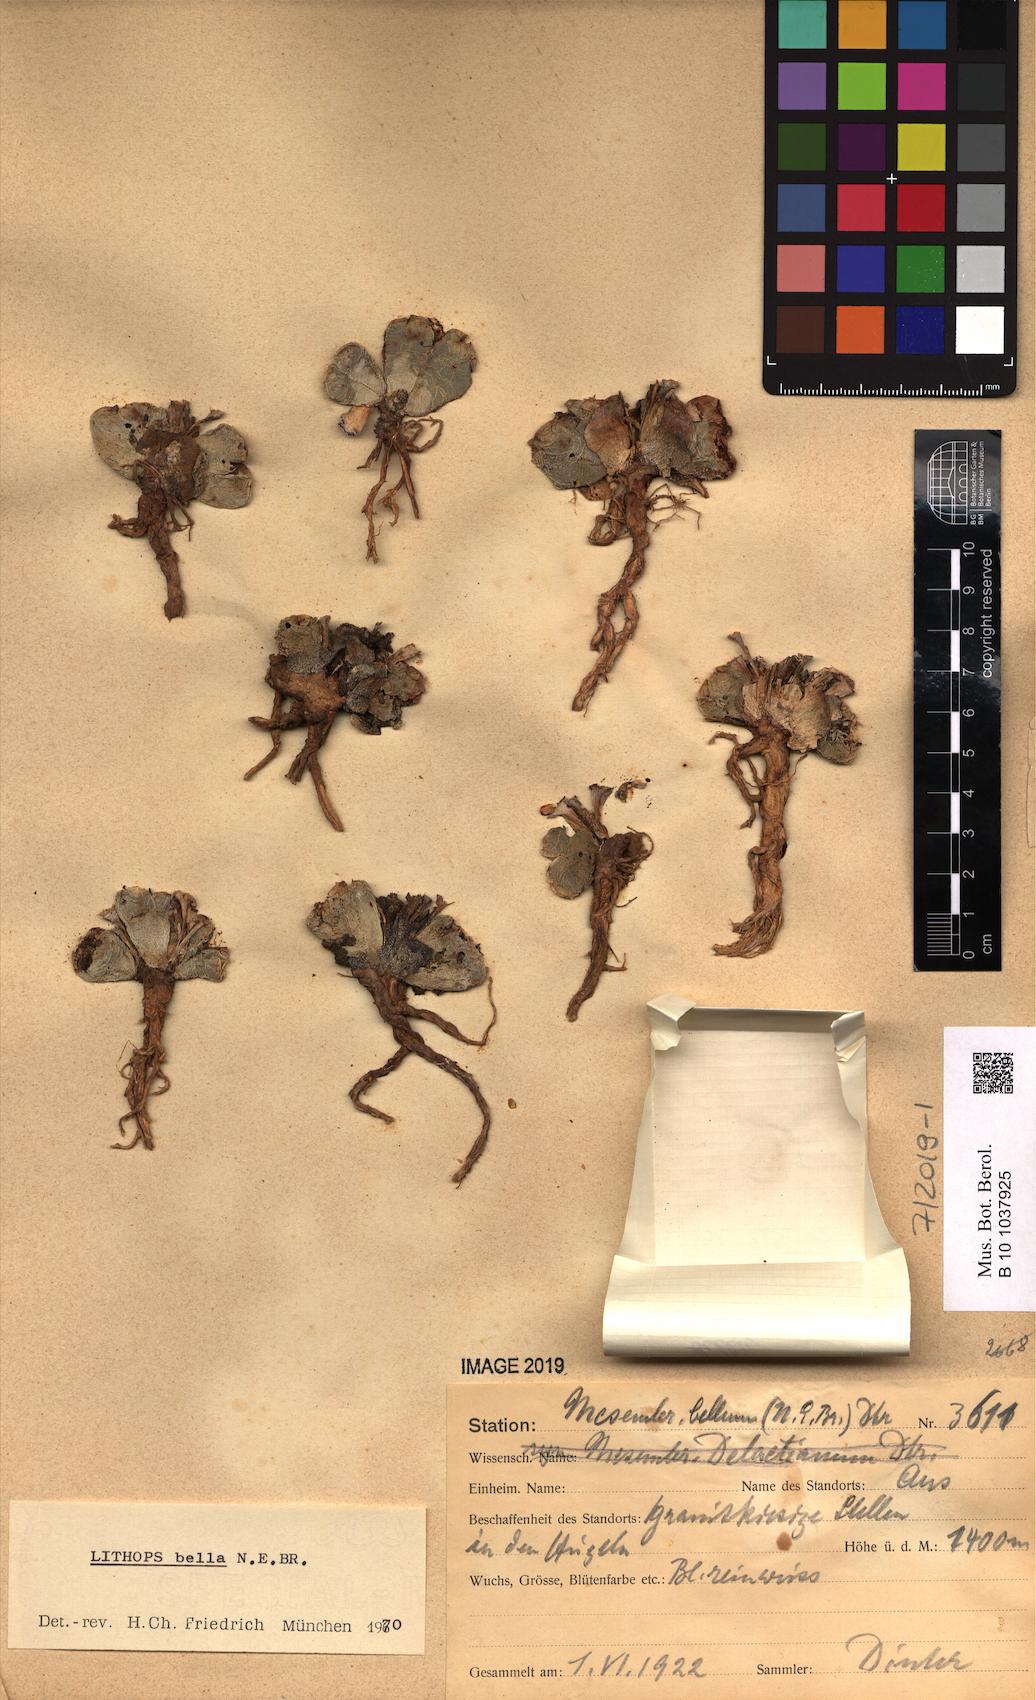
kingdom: Plantae
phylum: Tracheophyta
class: Magnoliopsida
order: Caryophyllales
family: Aizoaceae
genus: Lithops
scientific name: Lithops bella
